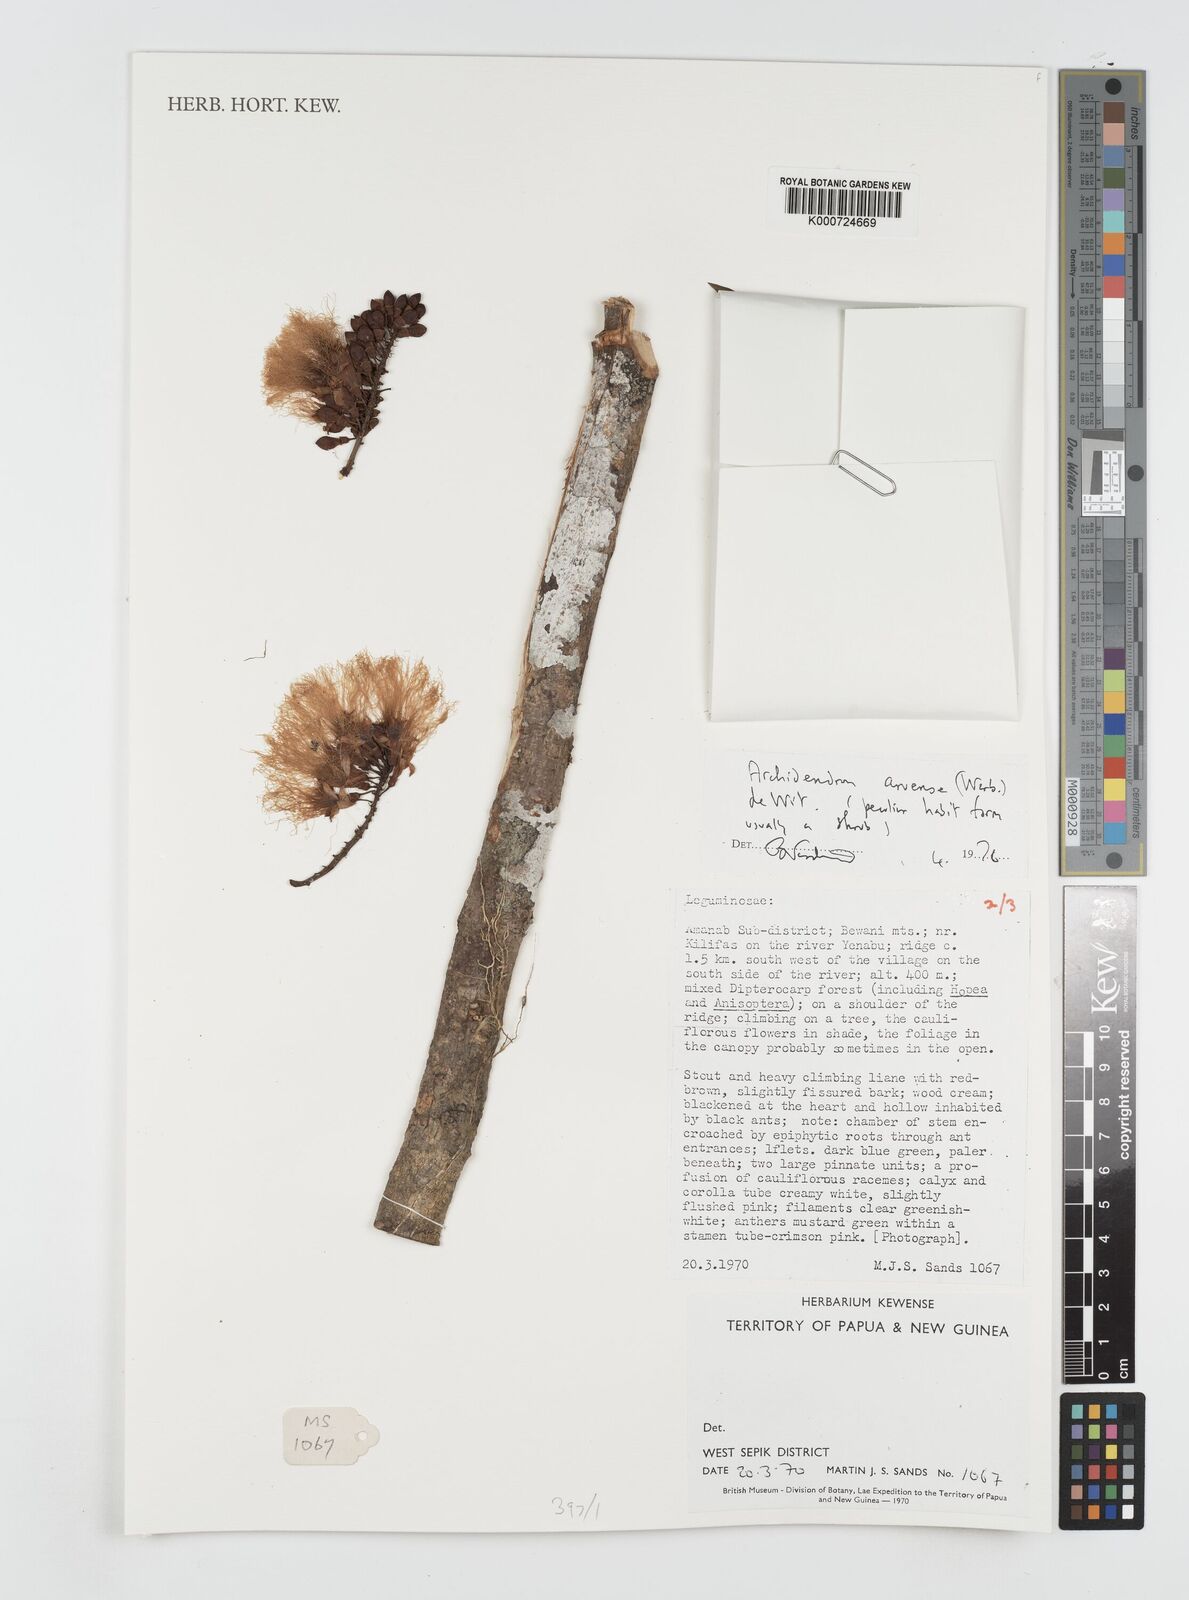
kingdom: Plantae
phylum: Tracheophyta
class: Magnoliopsida
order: Fabales
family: Fabaceae
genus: Archidendron
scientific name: Archidendron aruense
